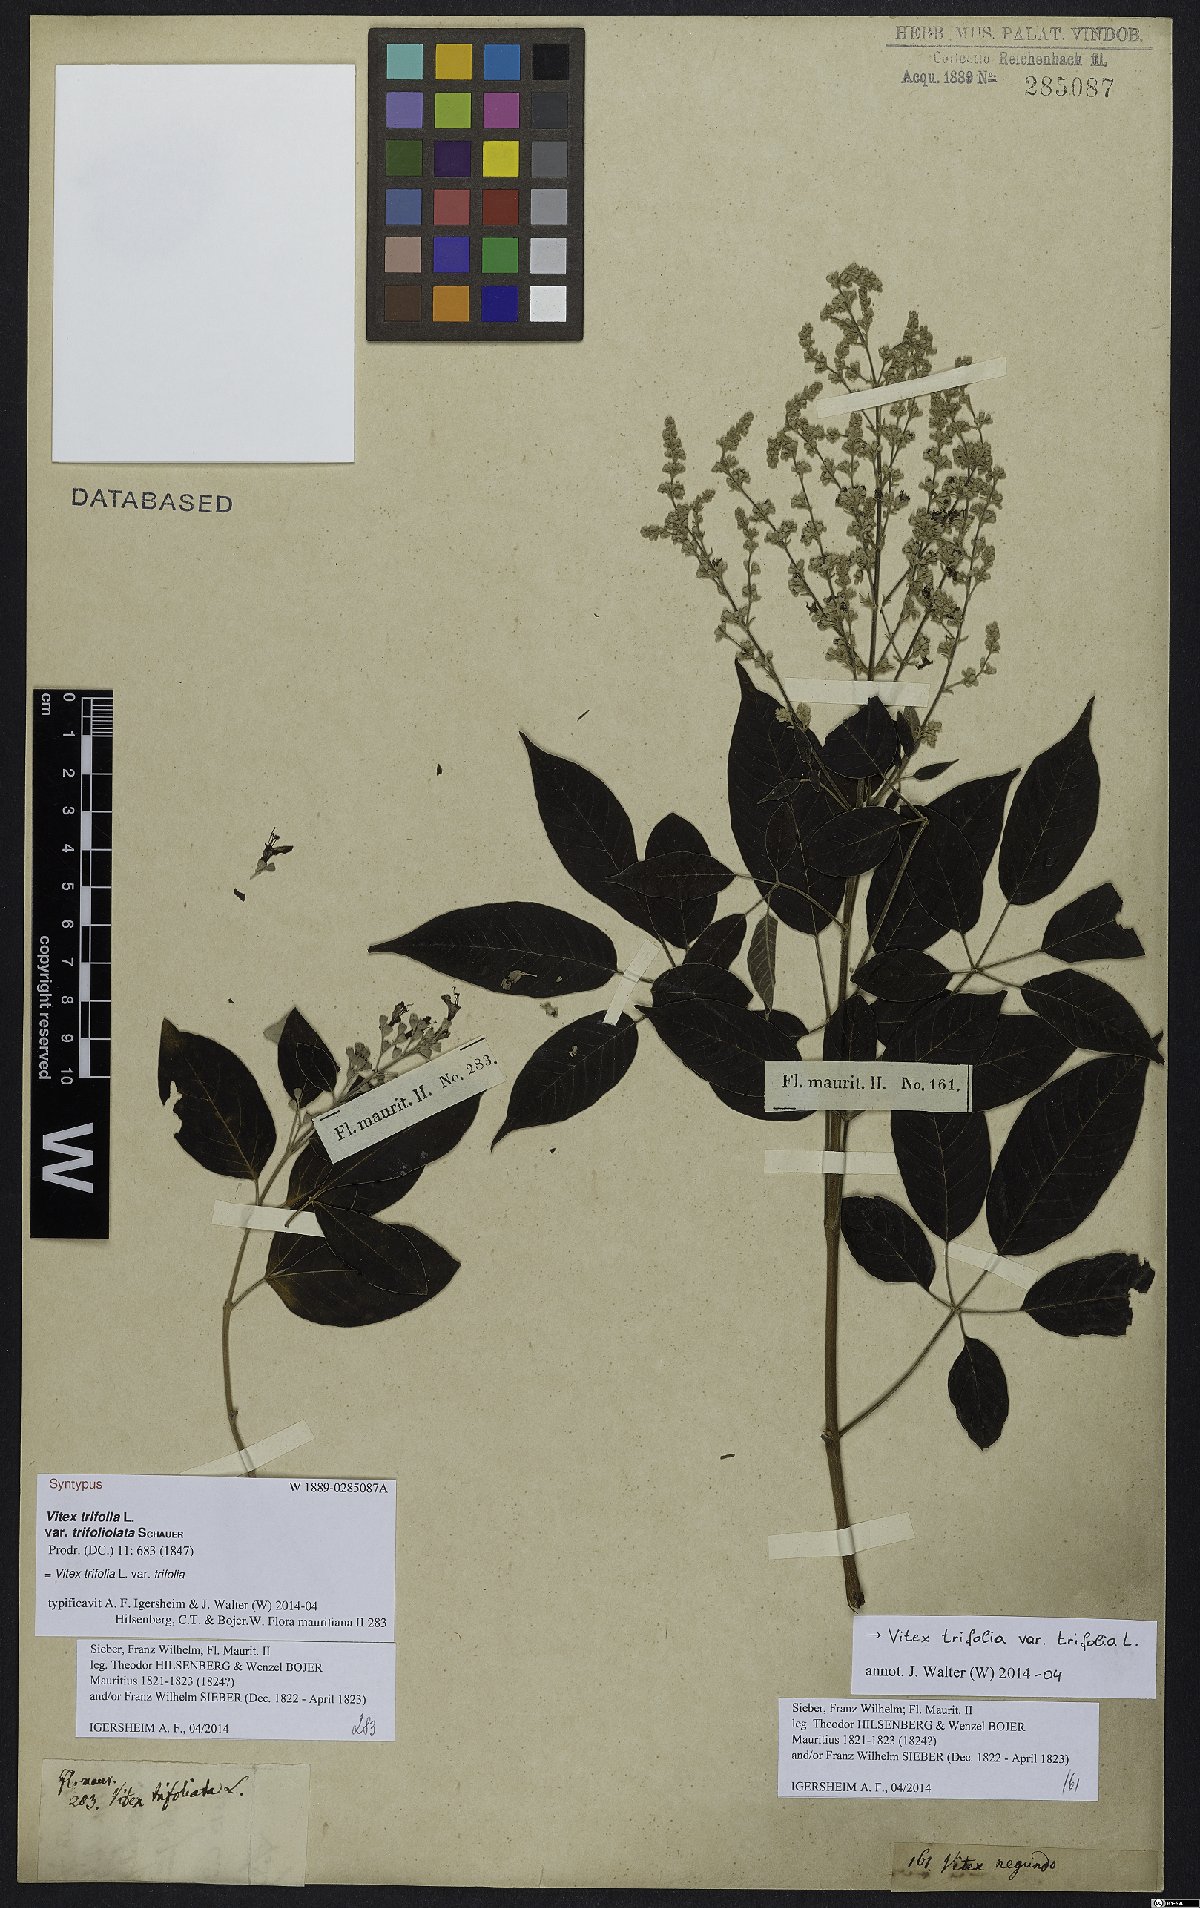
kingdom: Plantae
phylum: Tracheophyta
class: Magnoliopsida
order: Lamiales
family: Lamiaceae
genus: Vitex
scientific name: Vitex trifolia
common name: Simpleleaf chastetree
